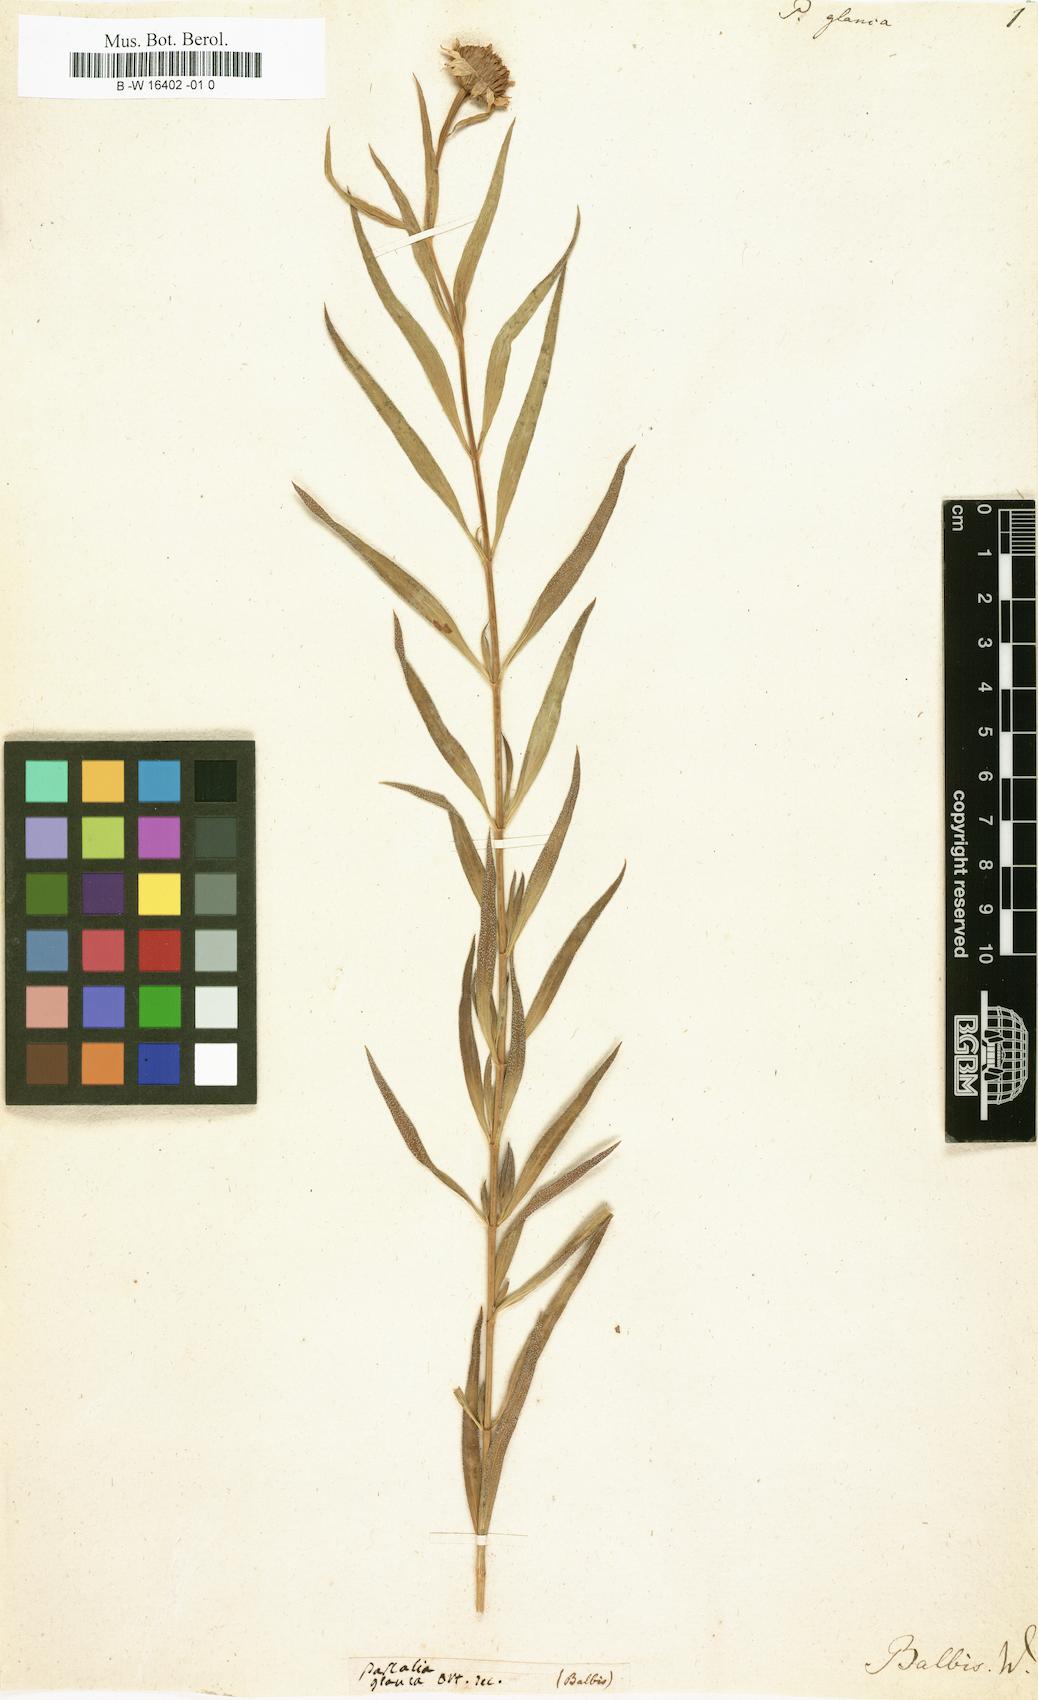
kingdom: Plantae
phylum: Tracheophyta
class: Magnoliopsida
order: Asterales
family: Asteraceae
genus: Pascalia
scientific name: Pascalia glauca
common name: Beach creeping oxeye
